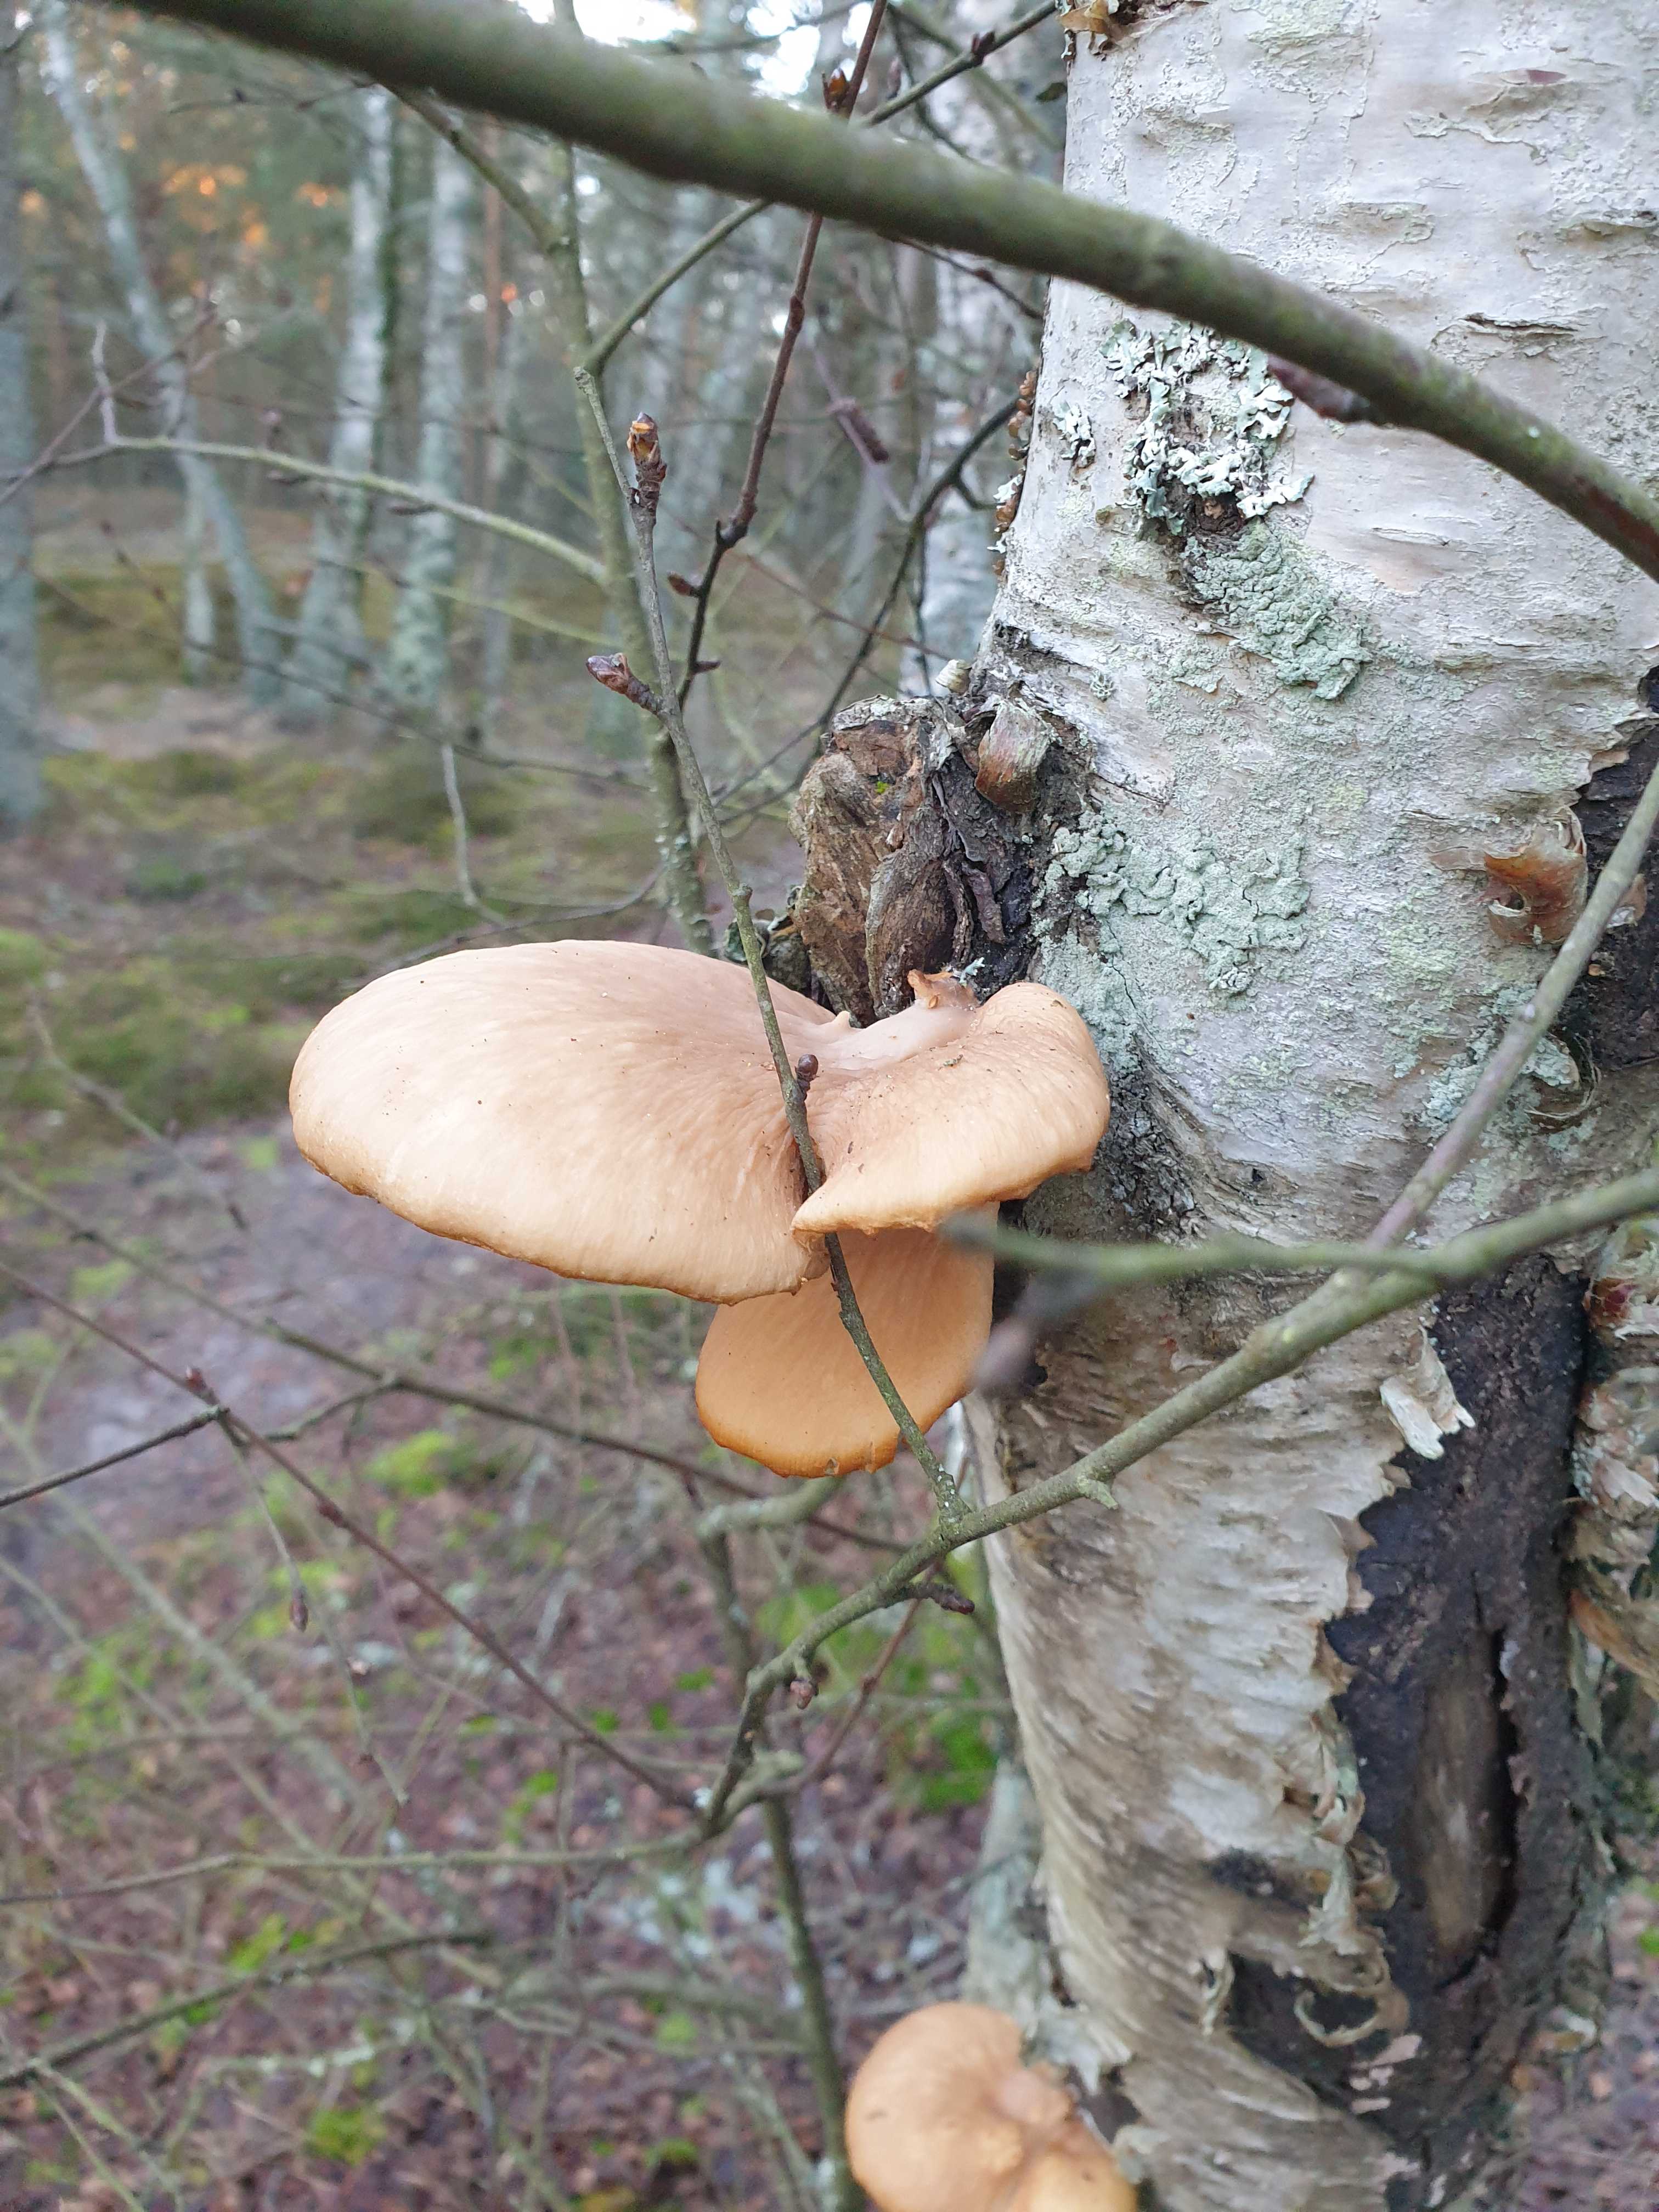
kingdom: Fungi
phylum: Basidiomycota
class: Agaricomycetes
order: Agaricales
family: Pleurotaceae
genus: Pleurotus
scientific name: Pleurotus ostreatus
